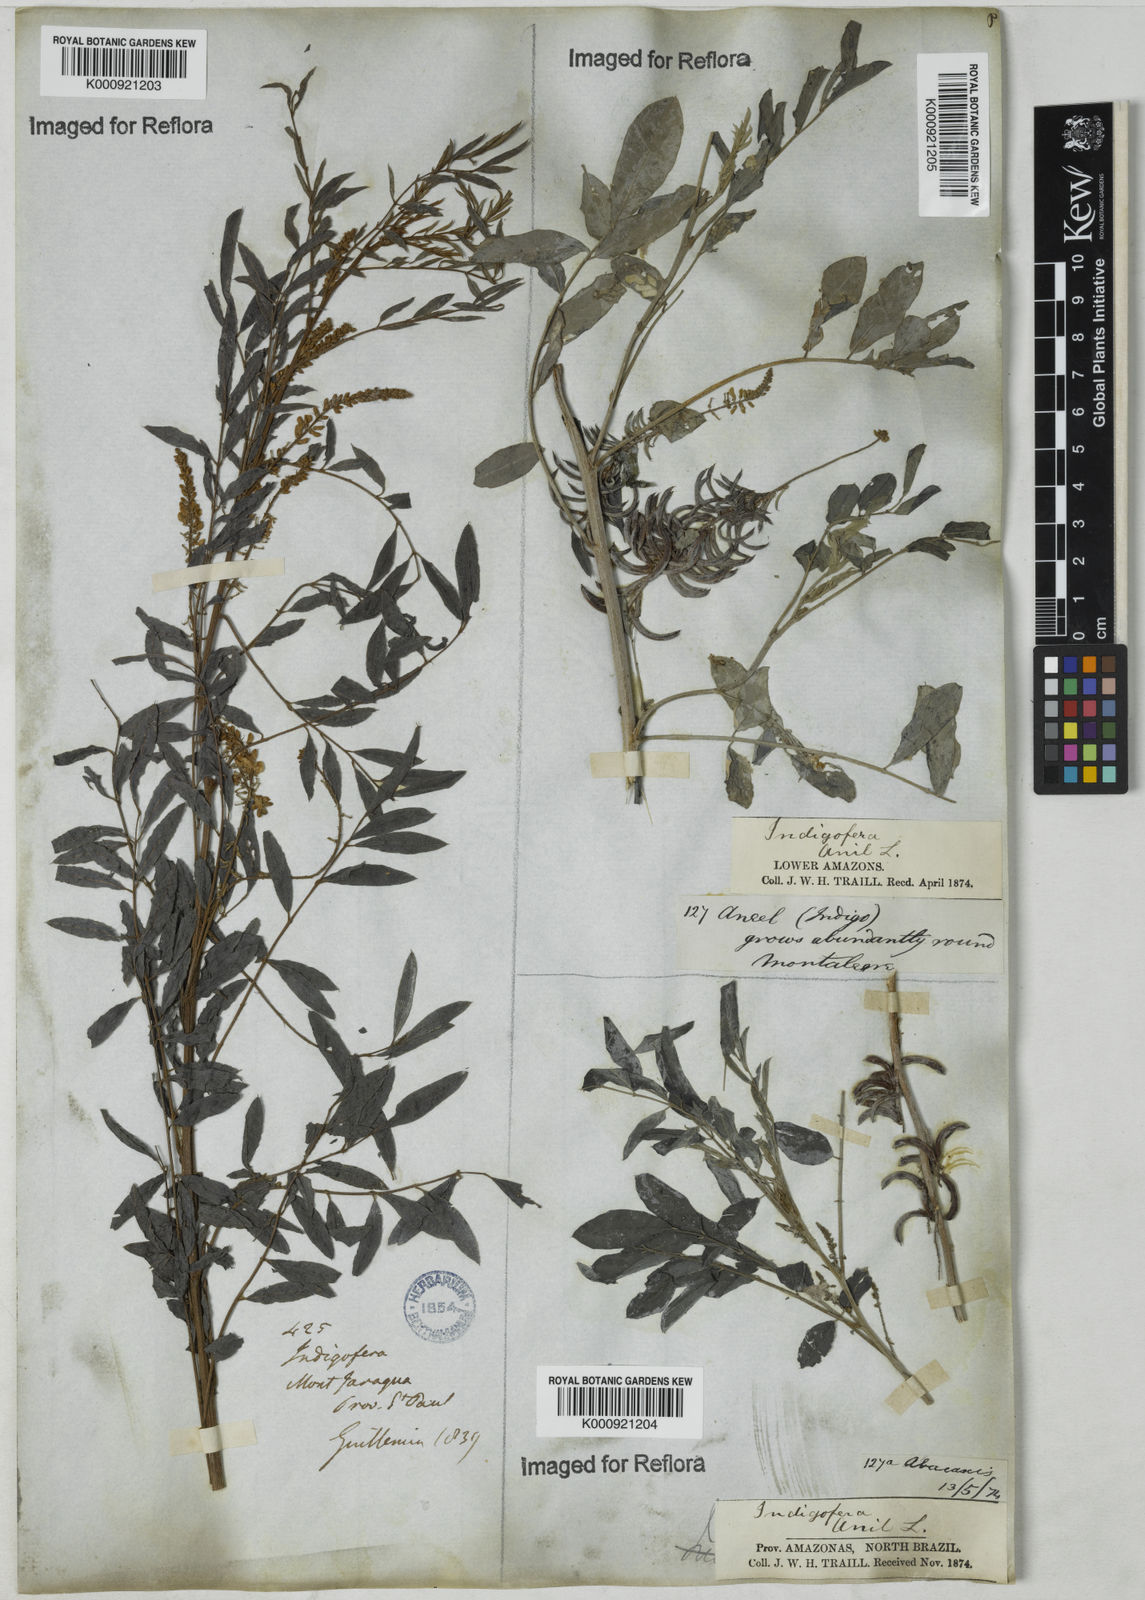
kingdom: Plantae
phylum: Tracheophyta
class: Magnoliopsida
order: Fabales
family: Fabaceae
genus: Indigofera
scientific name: Indigofera suffruticosa
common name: Anil de pasto
